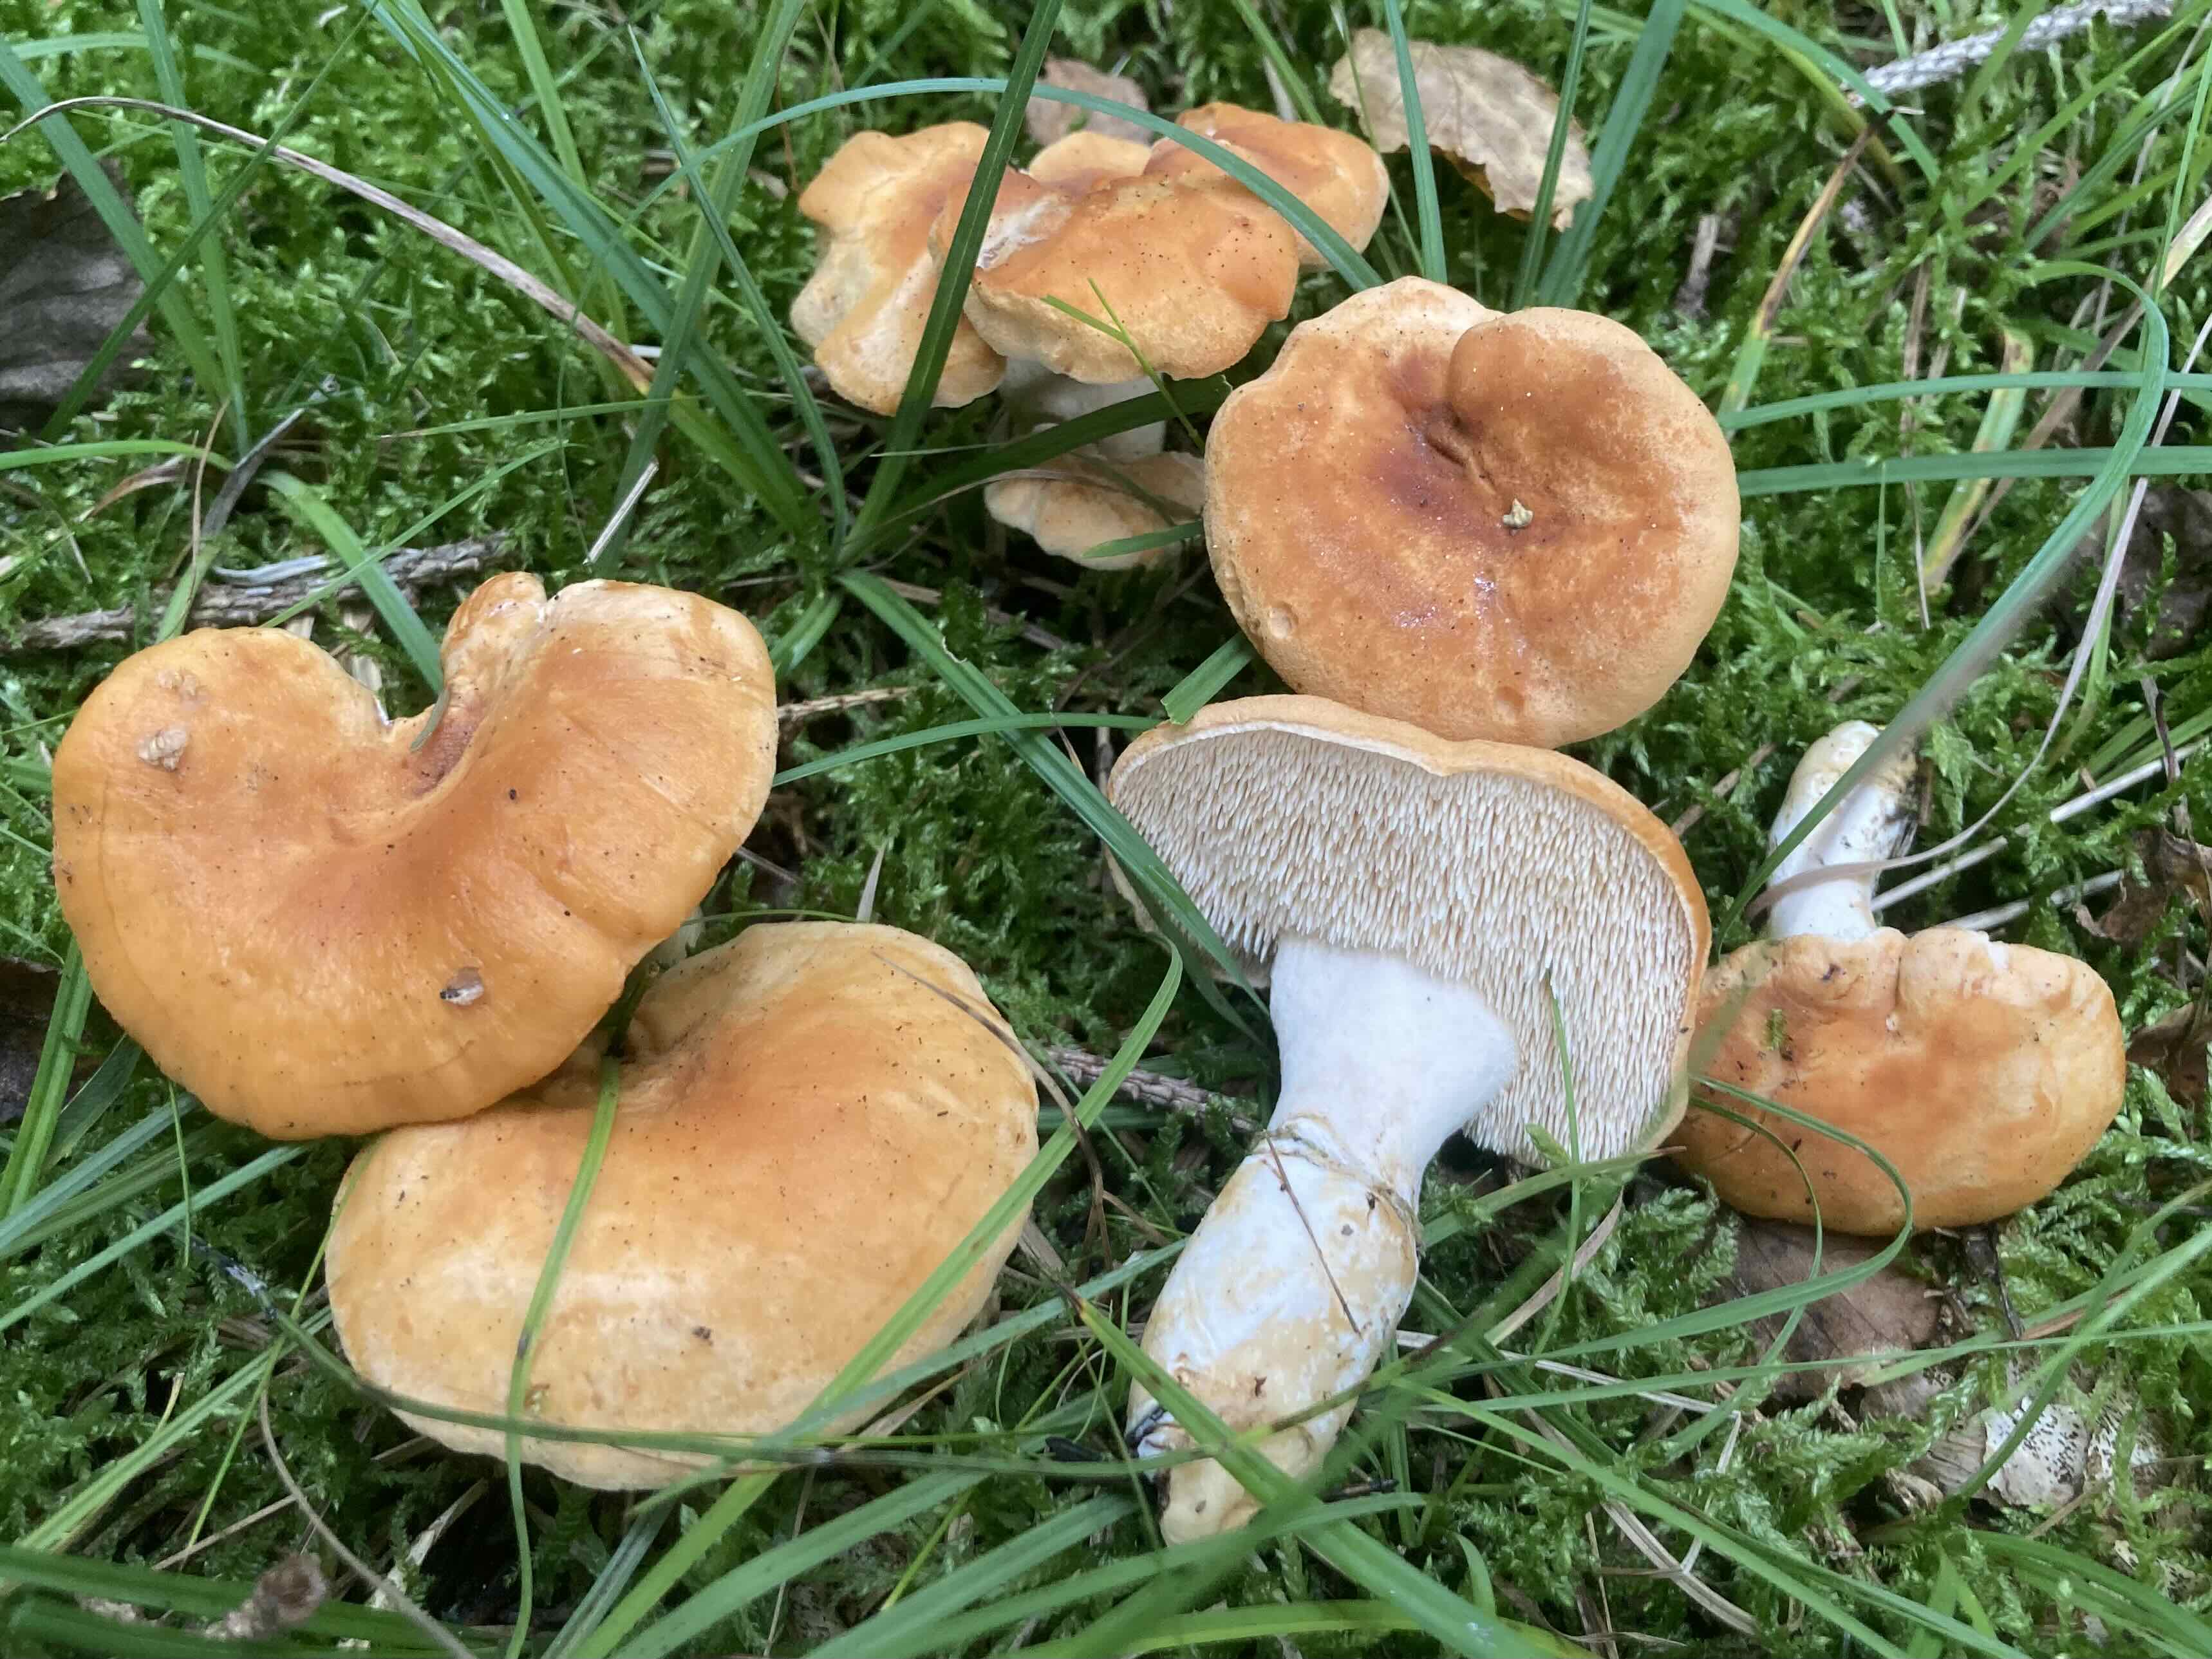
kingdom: Fungi
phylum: Basidiomycota
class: Agaricomycetes
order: Cantharellales
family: Hydnaceae
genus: Hydnum
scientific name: Hydnum mulsicolor
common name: mjødfarvet pigsvamp
